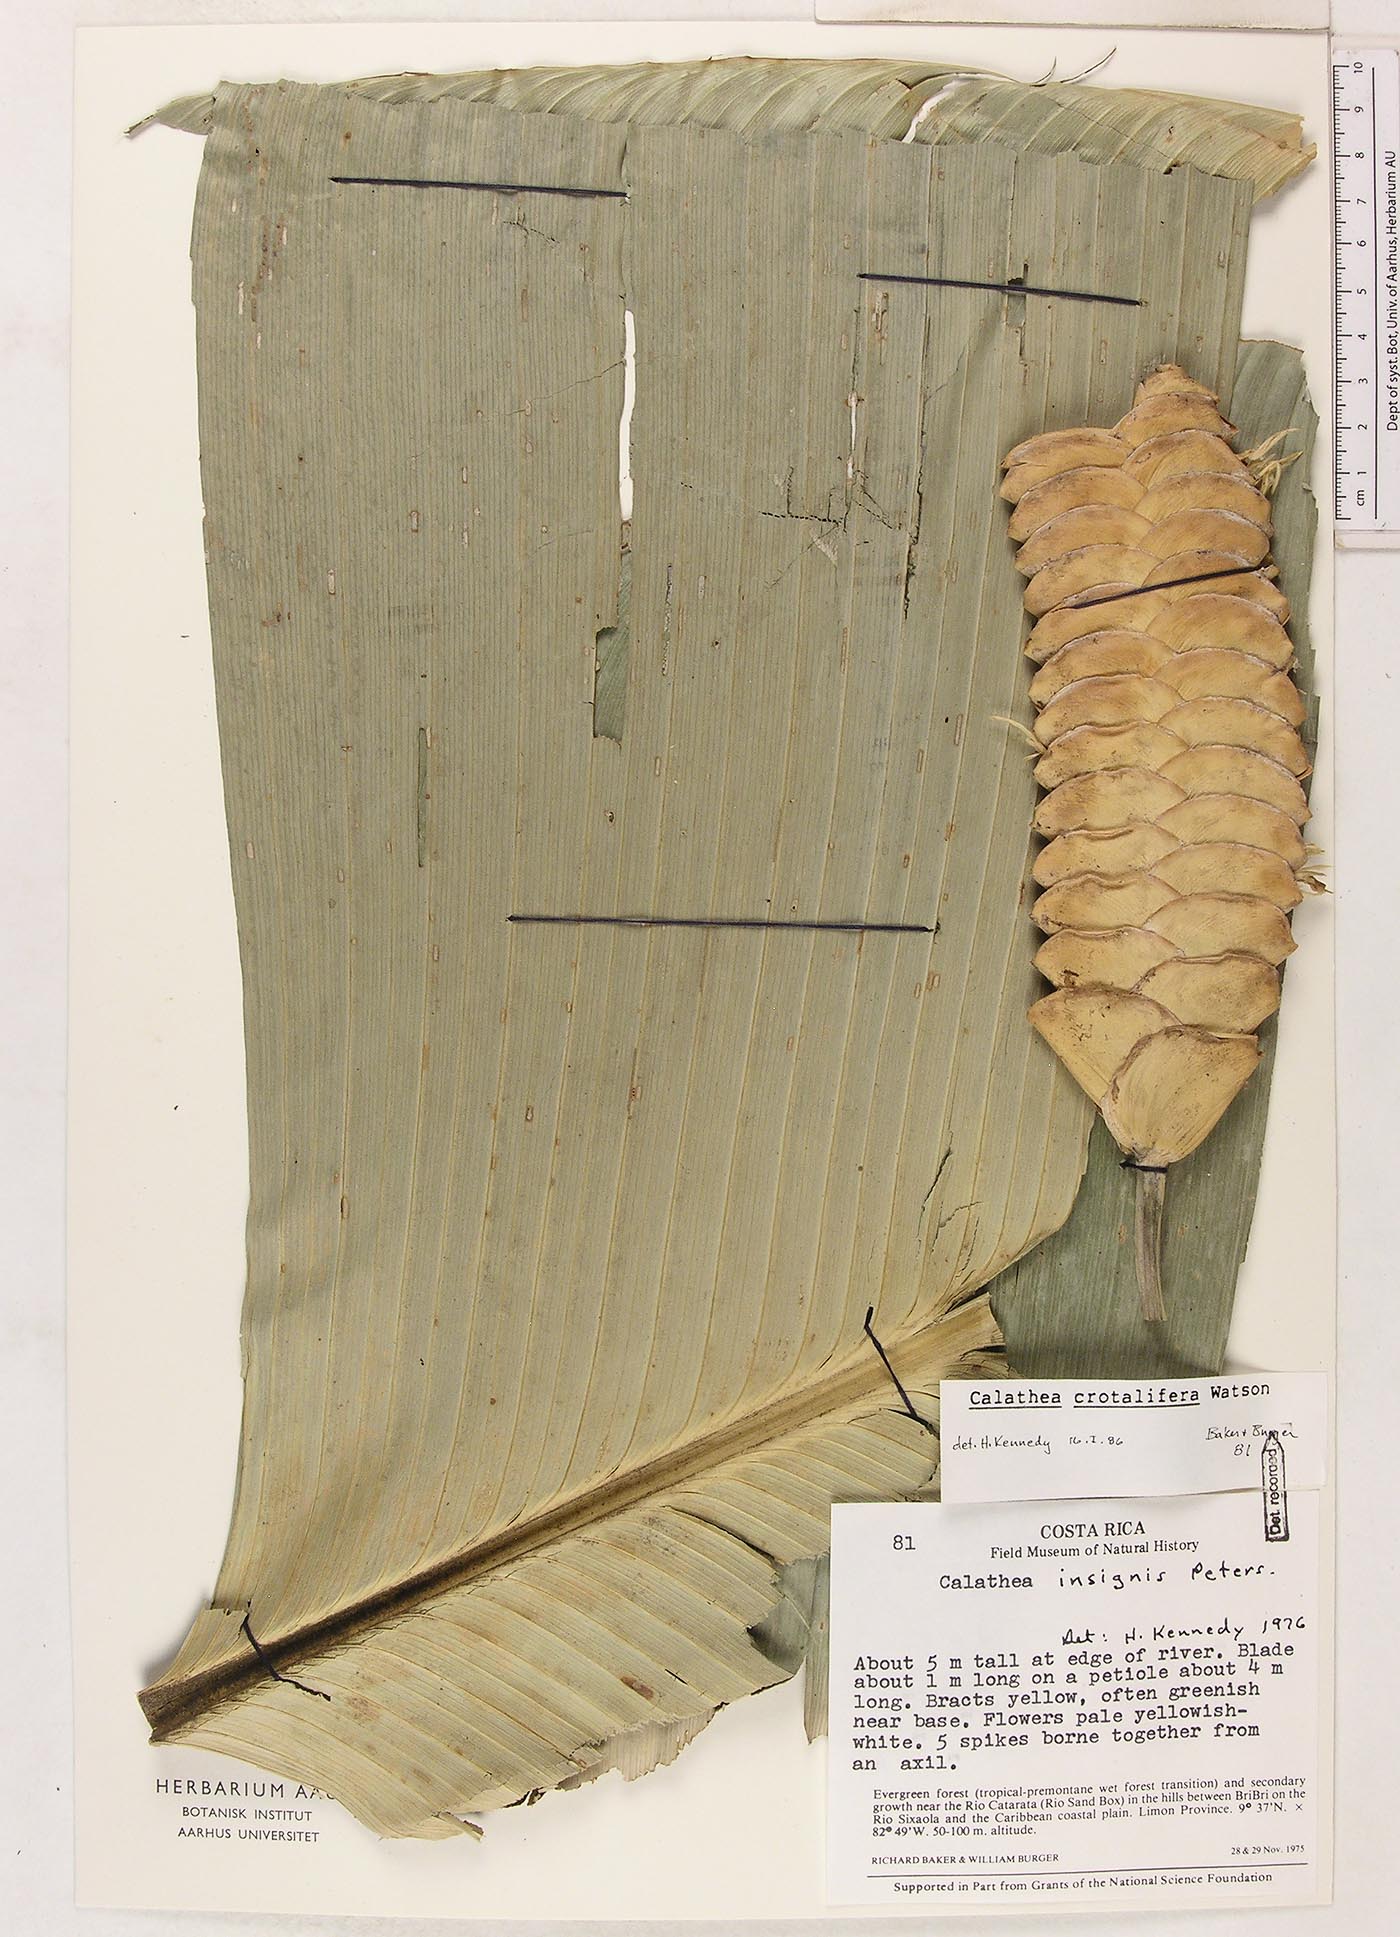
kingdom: Plantae
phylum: Tracheophyta
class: Liliopsida
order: Zingiberales
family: Marantaceae
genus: Calathea
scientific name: Calathea crotalifera
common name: Rattlesnake plant
